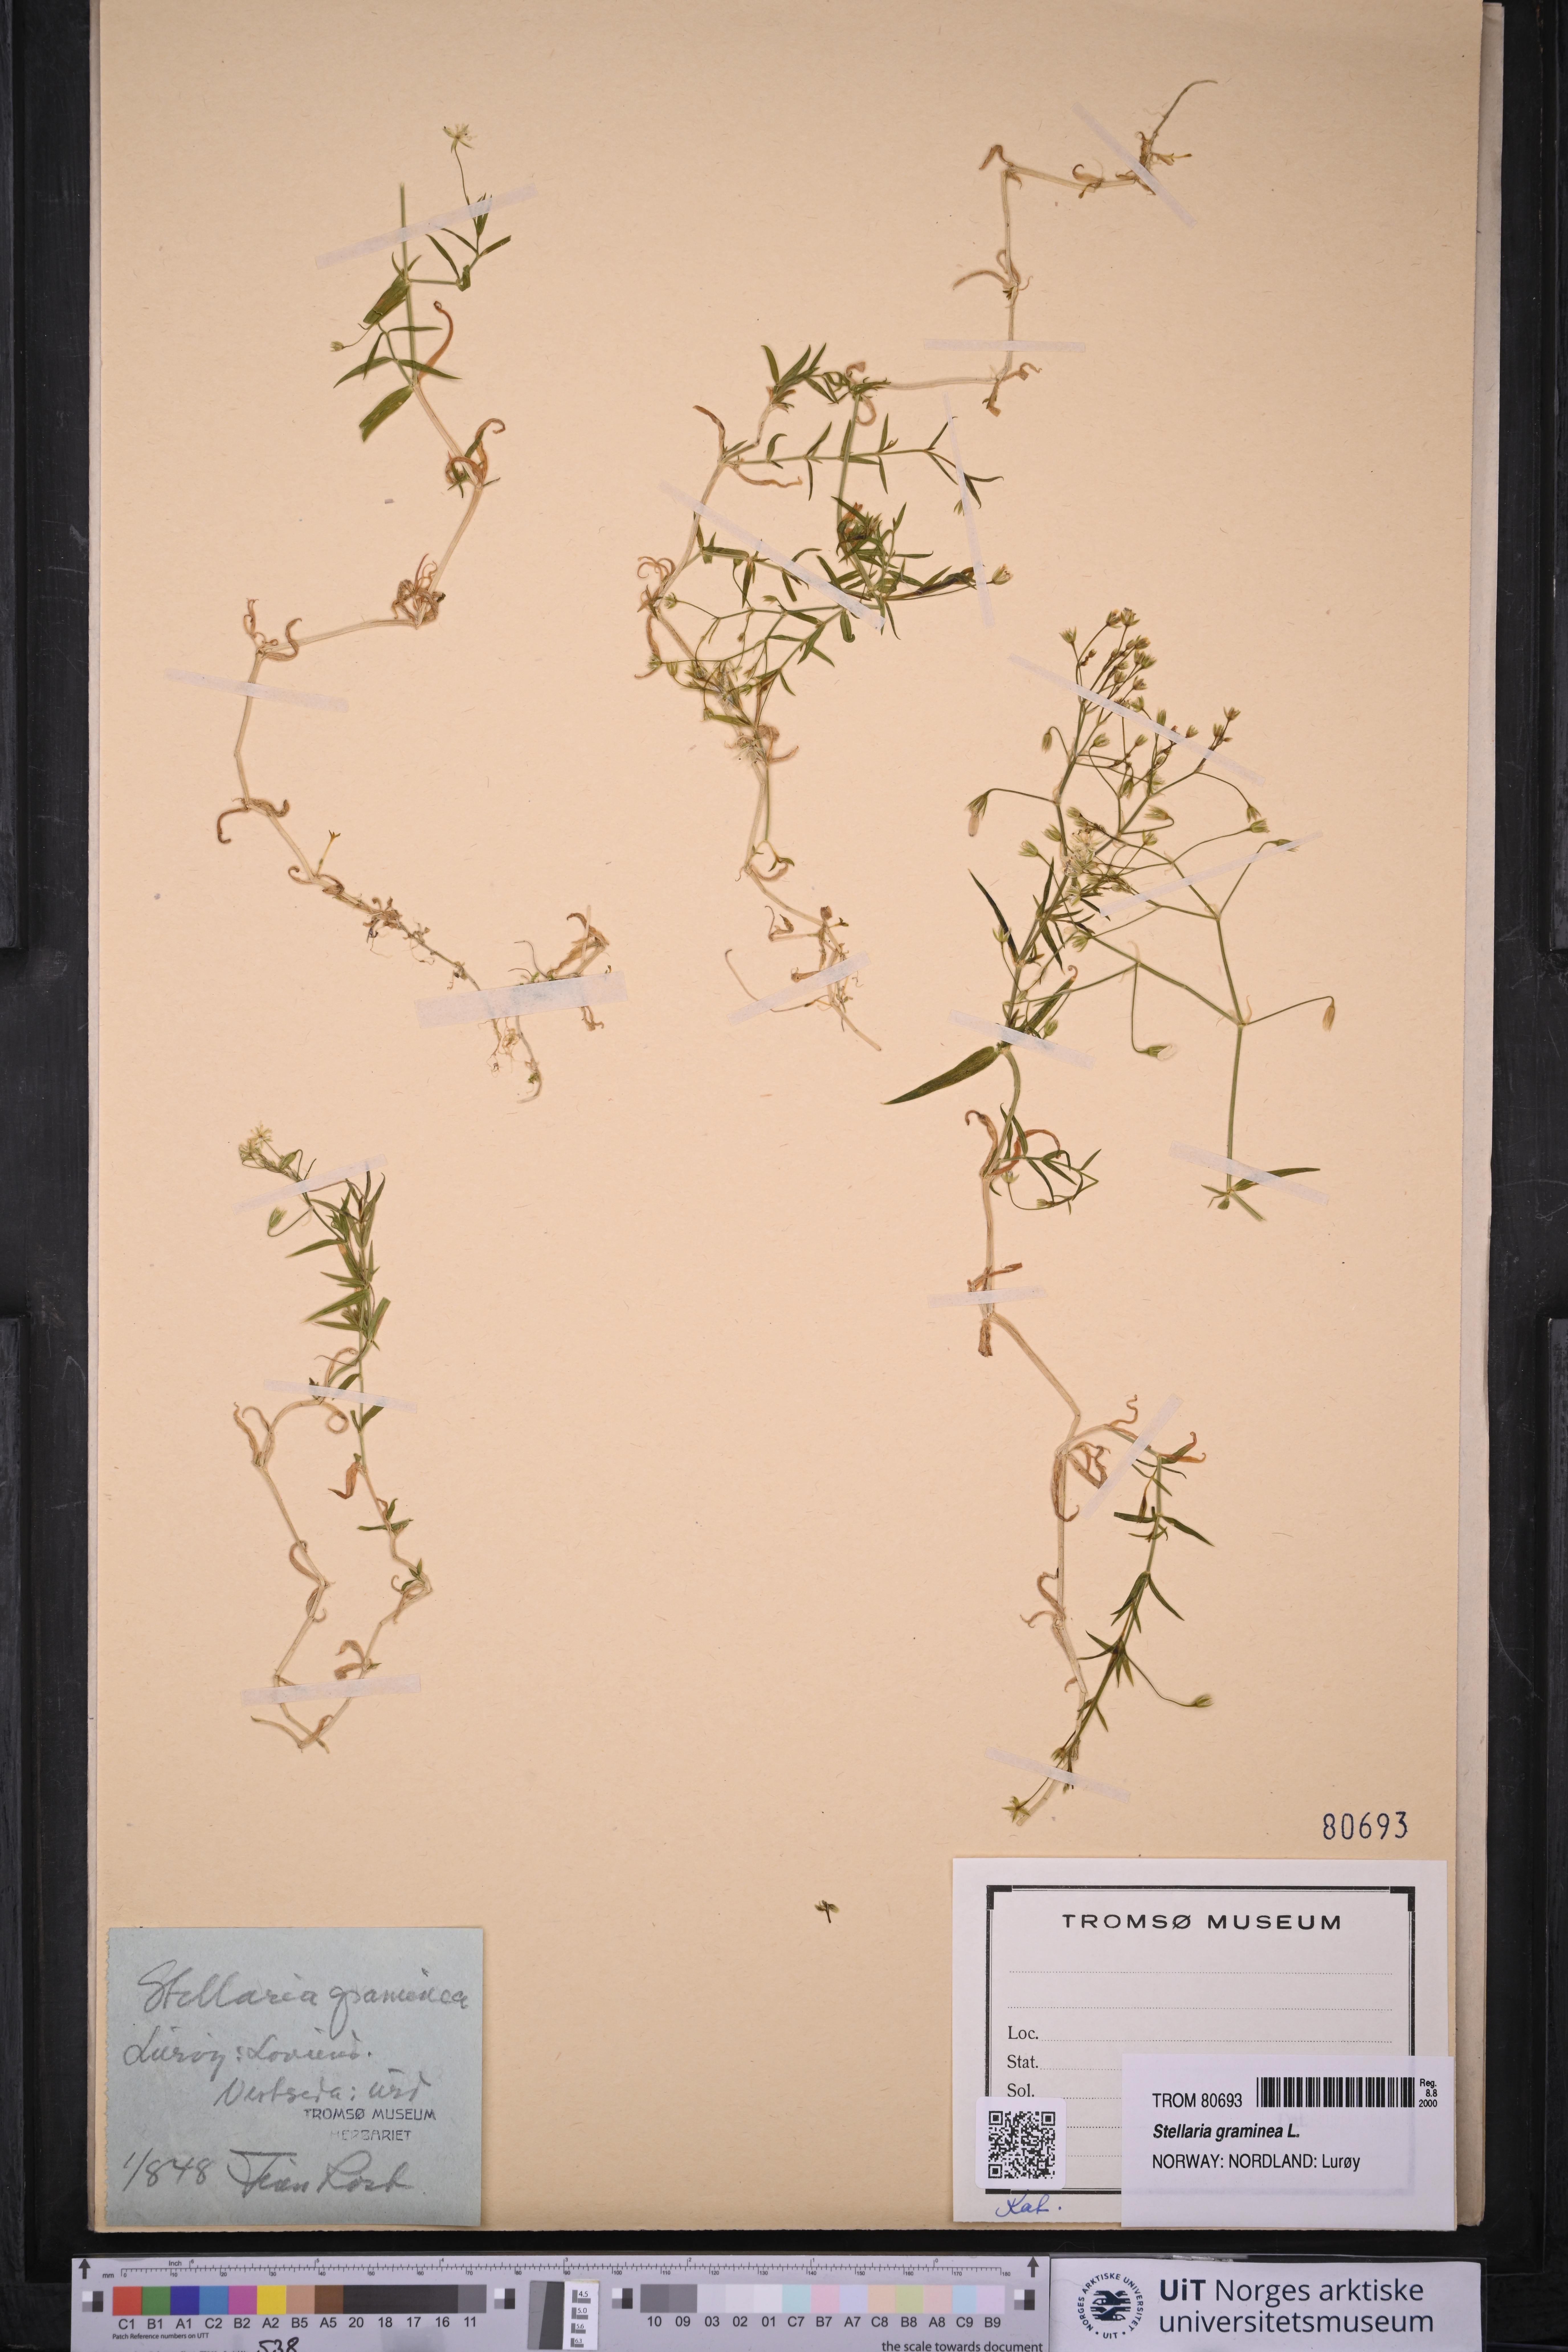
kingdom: Plantae
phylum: Tracheophyta
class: Magnoliopsida
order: Caryophyllales
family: Caryophyllaceae
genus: Stellaria
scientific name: Stellaria graminea
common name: Grass-like starwort
